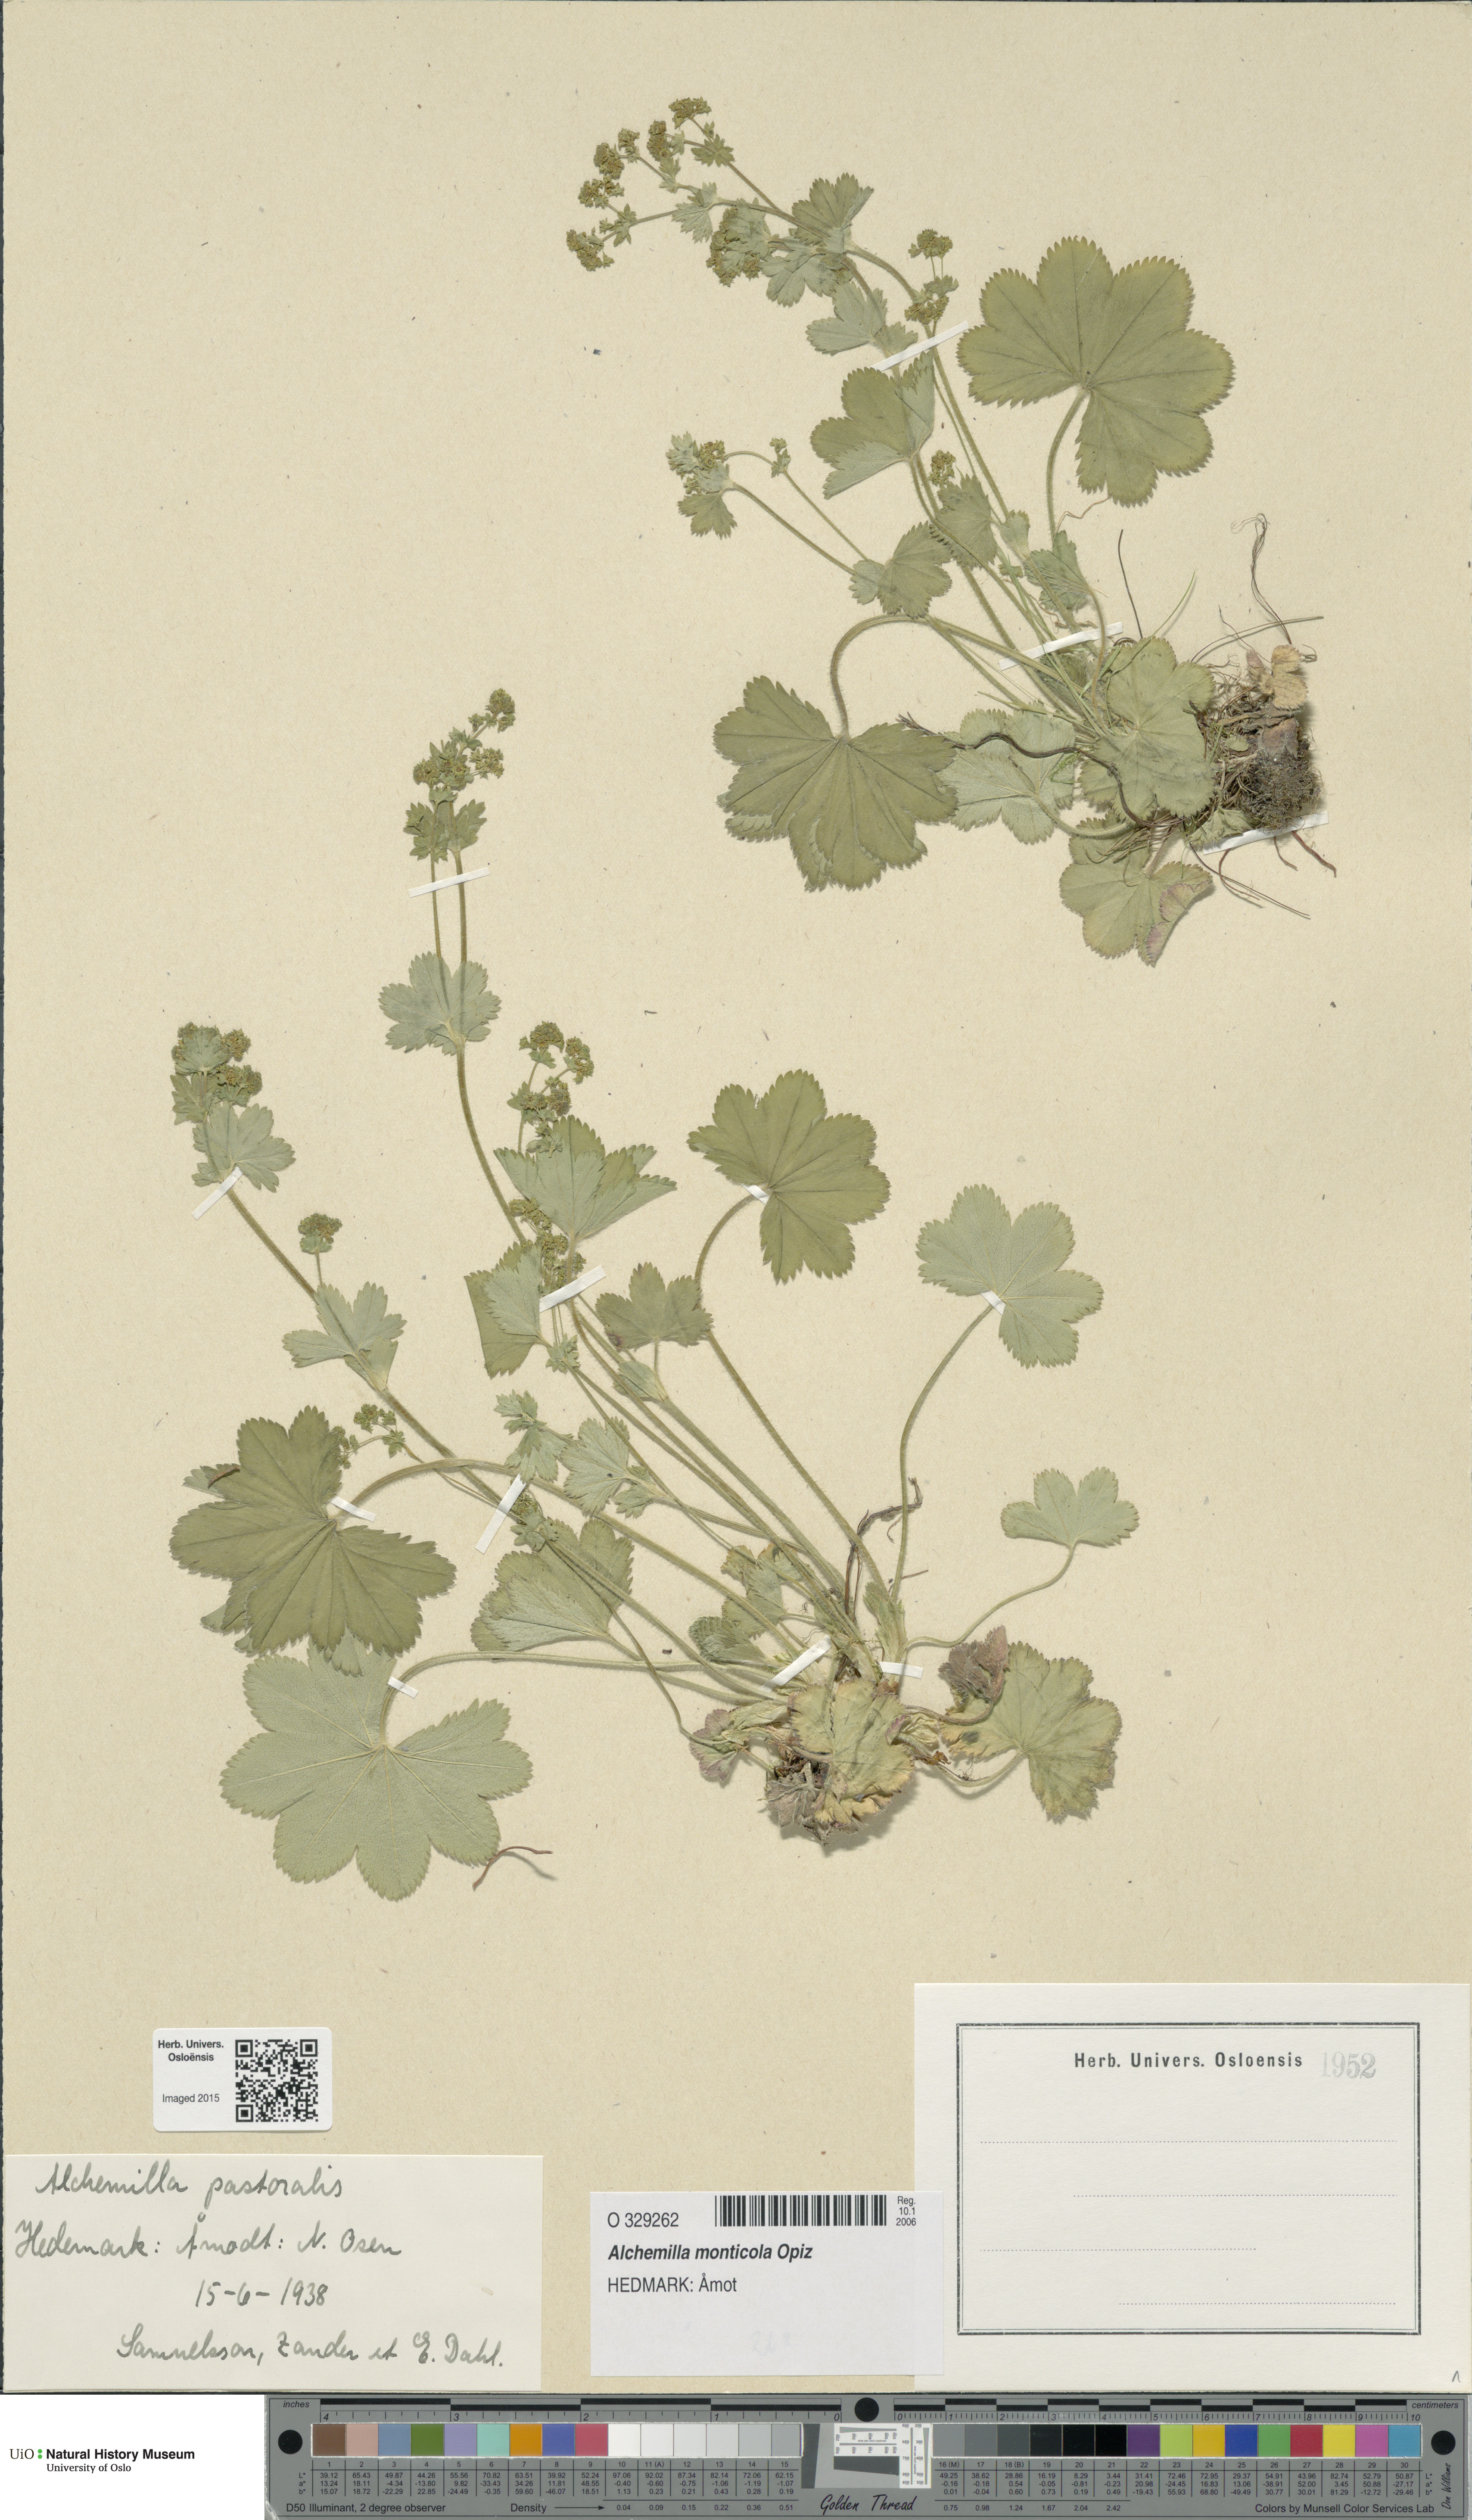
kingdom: Plantae
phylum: Tracheophyta
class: Magnoliopsida
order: Rosales
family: Rosaceae
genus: Alchemilla
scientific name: Alchemilla monticola
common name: Hairy lady's mantle
